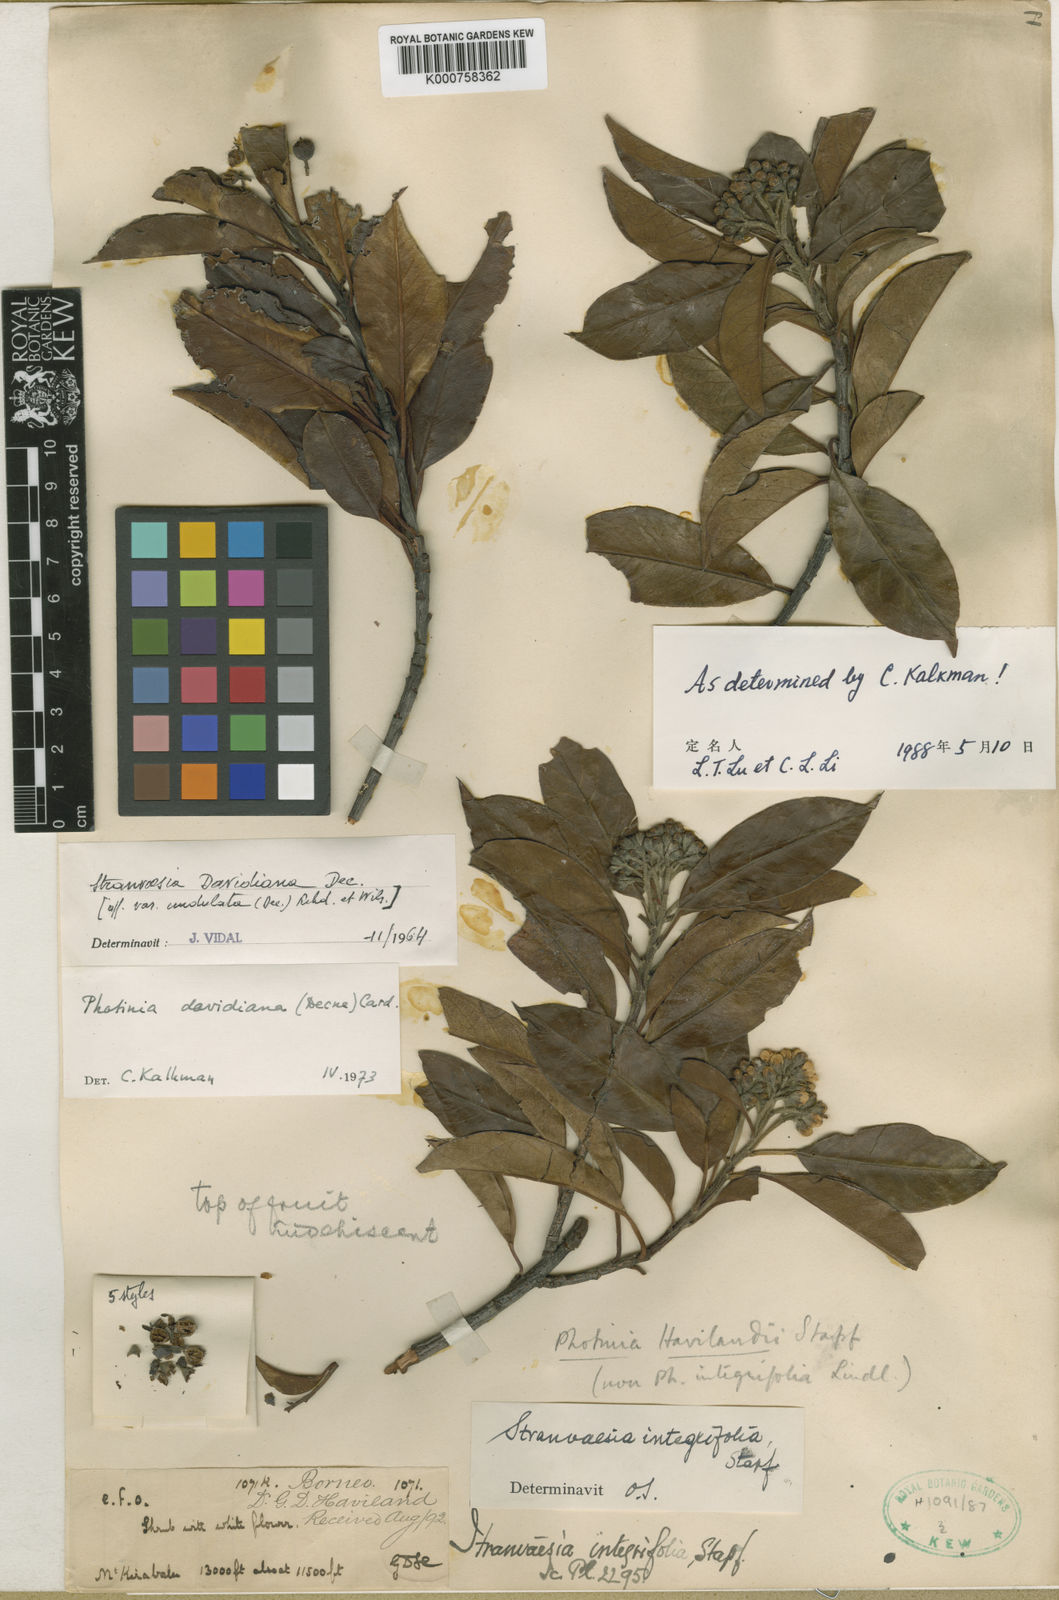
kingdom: Plantae
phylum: Tracheophyta
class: Magnoliopsida
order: Rosales
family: Rosaceae
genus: Stranvaesia
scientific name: Stranvaesia davidiana
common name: Chinese photinia
